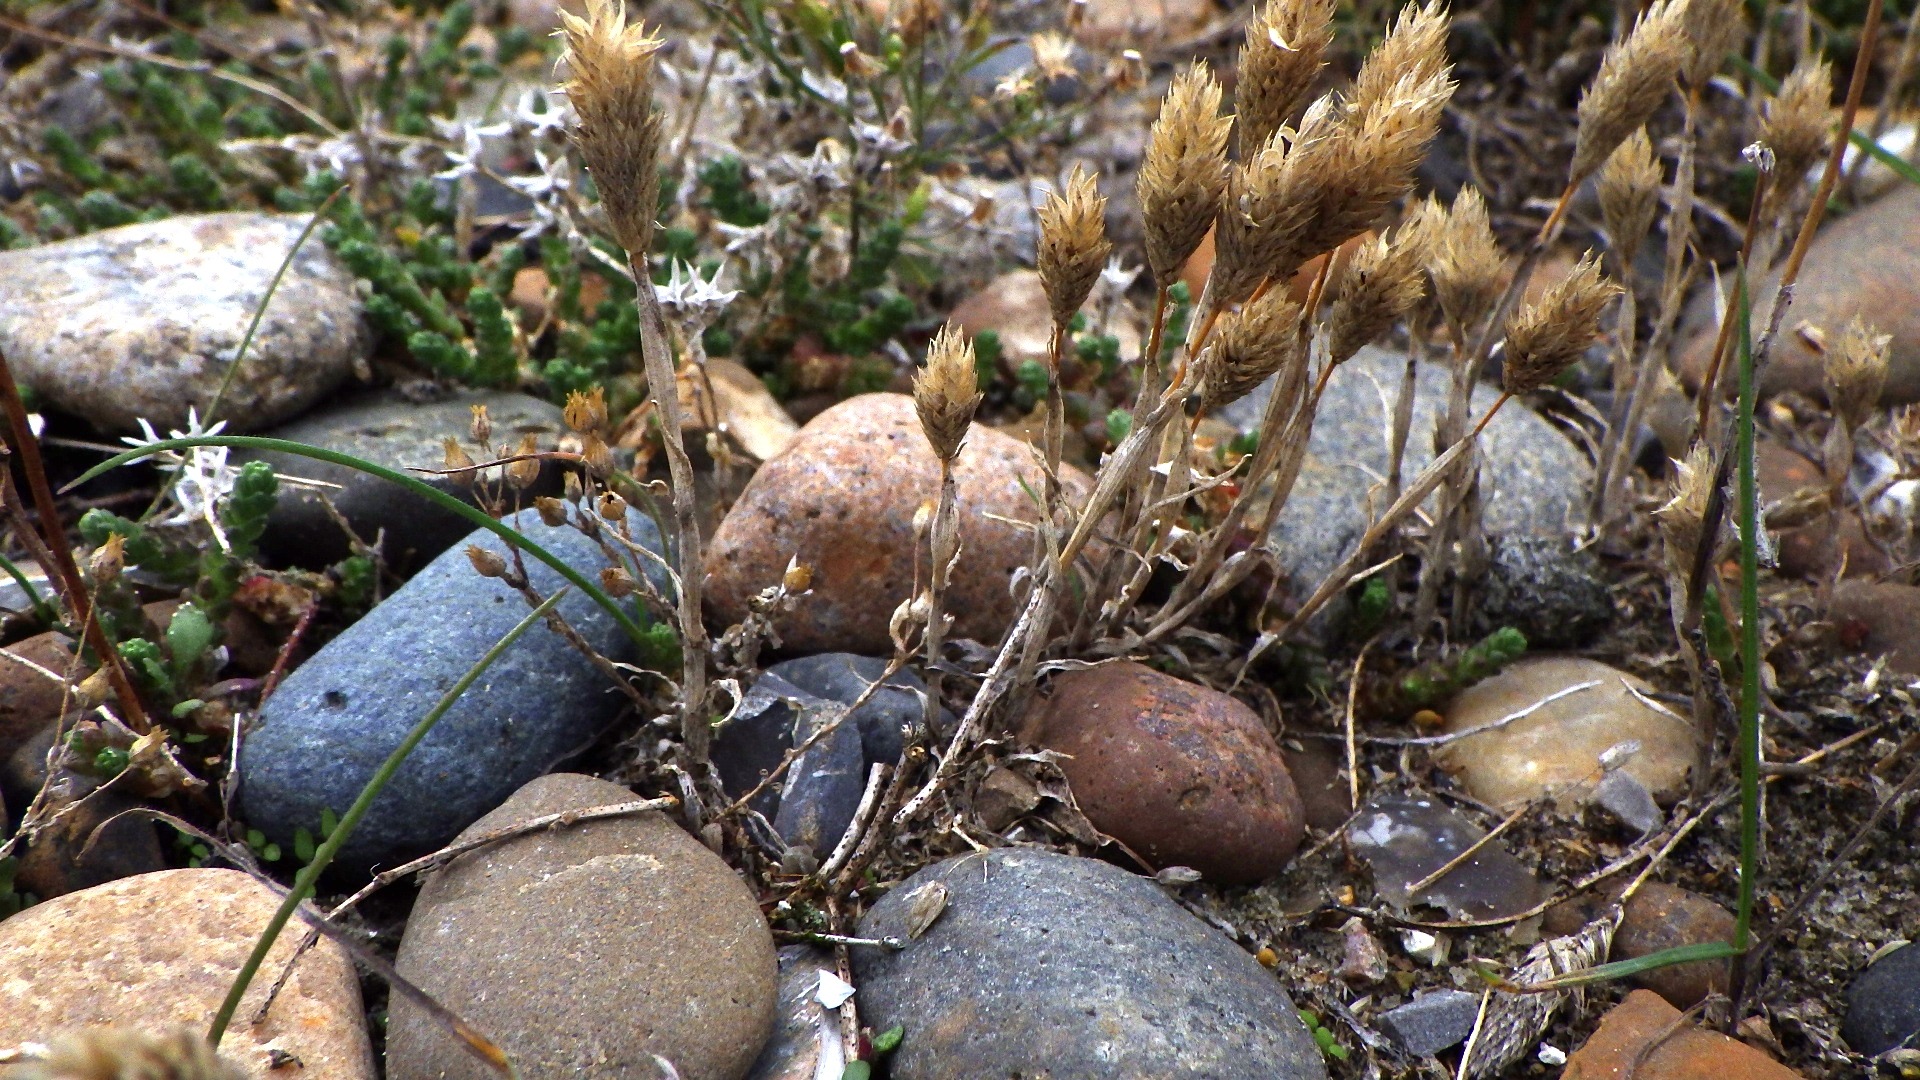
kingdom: Plantae
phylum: Tracheophyta
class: Liliopsida
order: Poales
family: Poaceae
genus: Phleum
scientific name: Phleum arenarium
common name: Sand-rottehale
